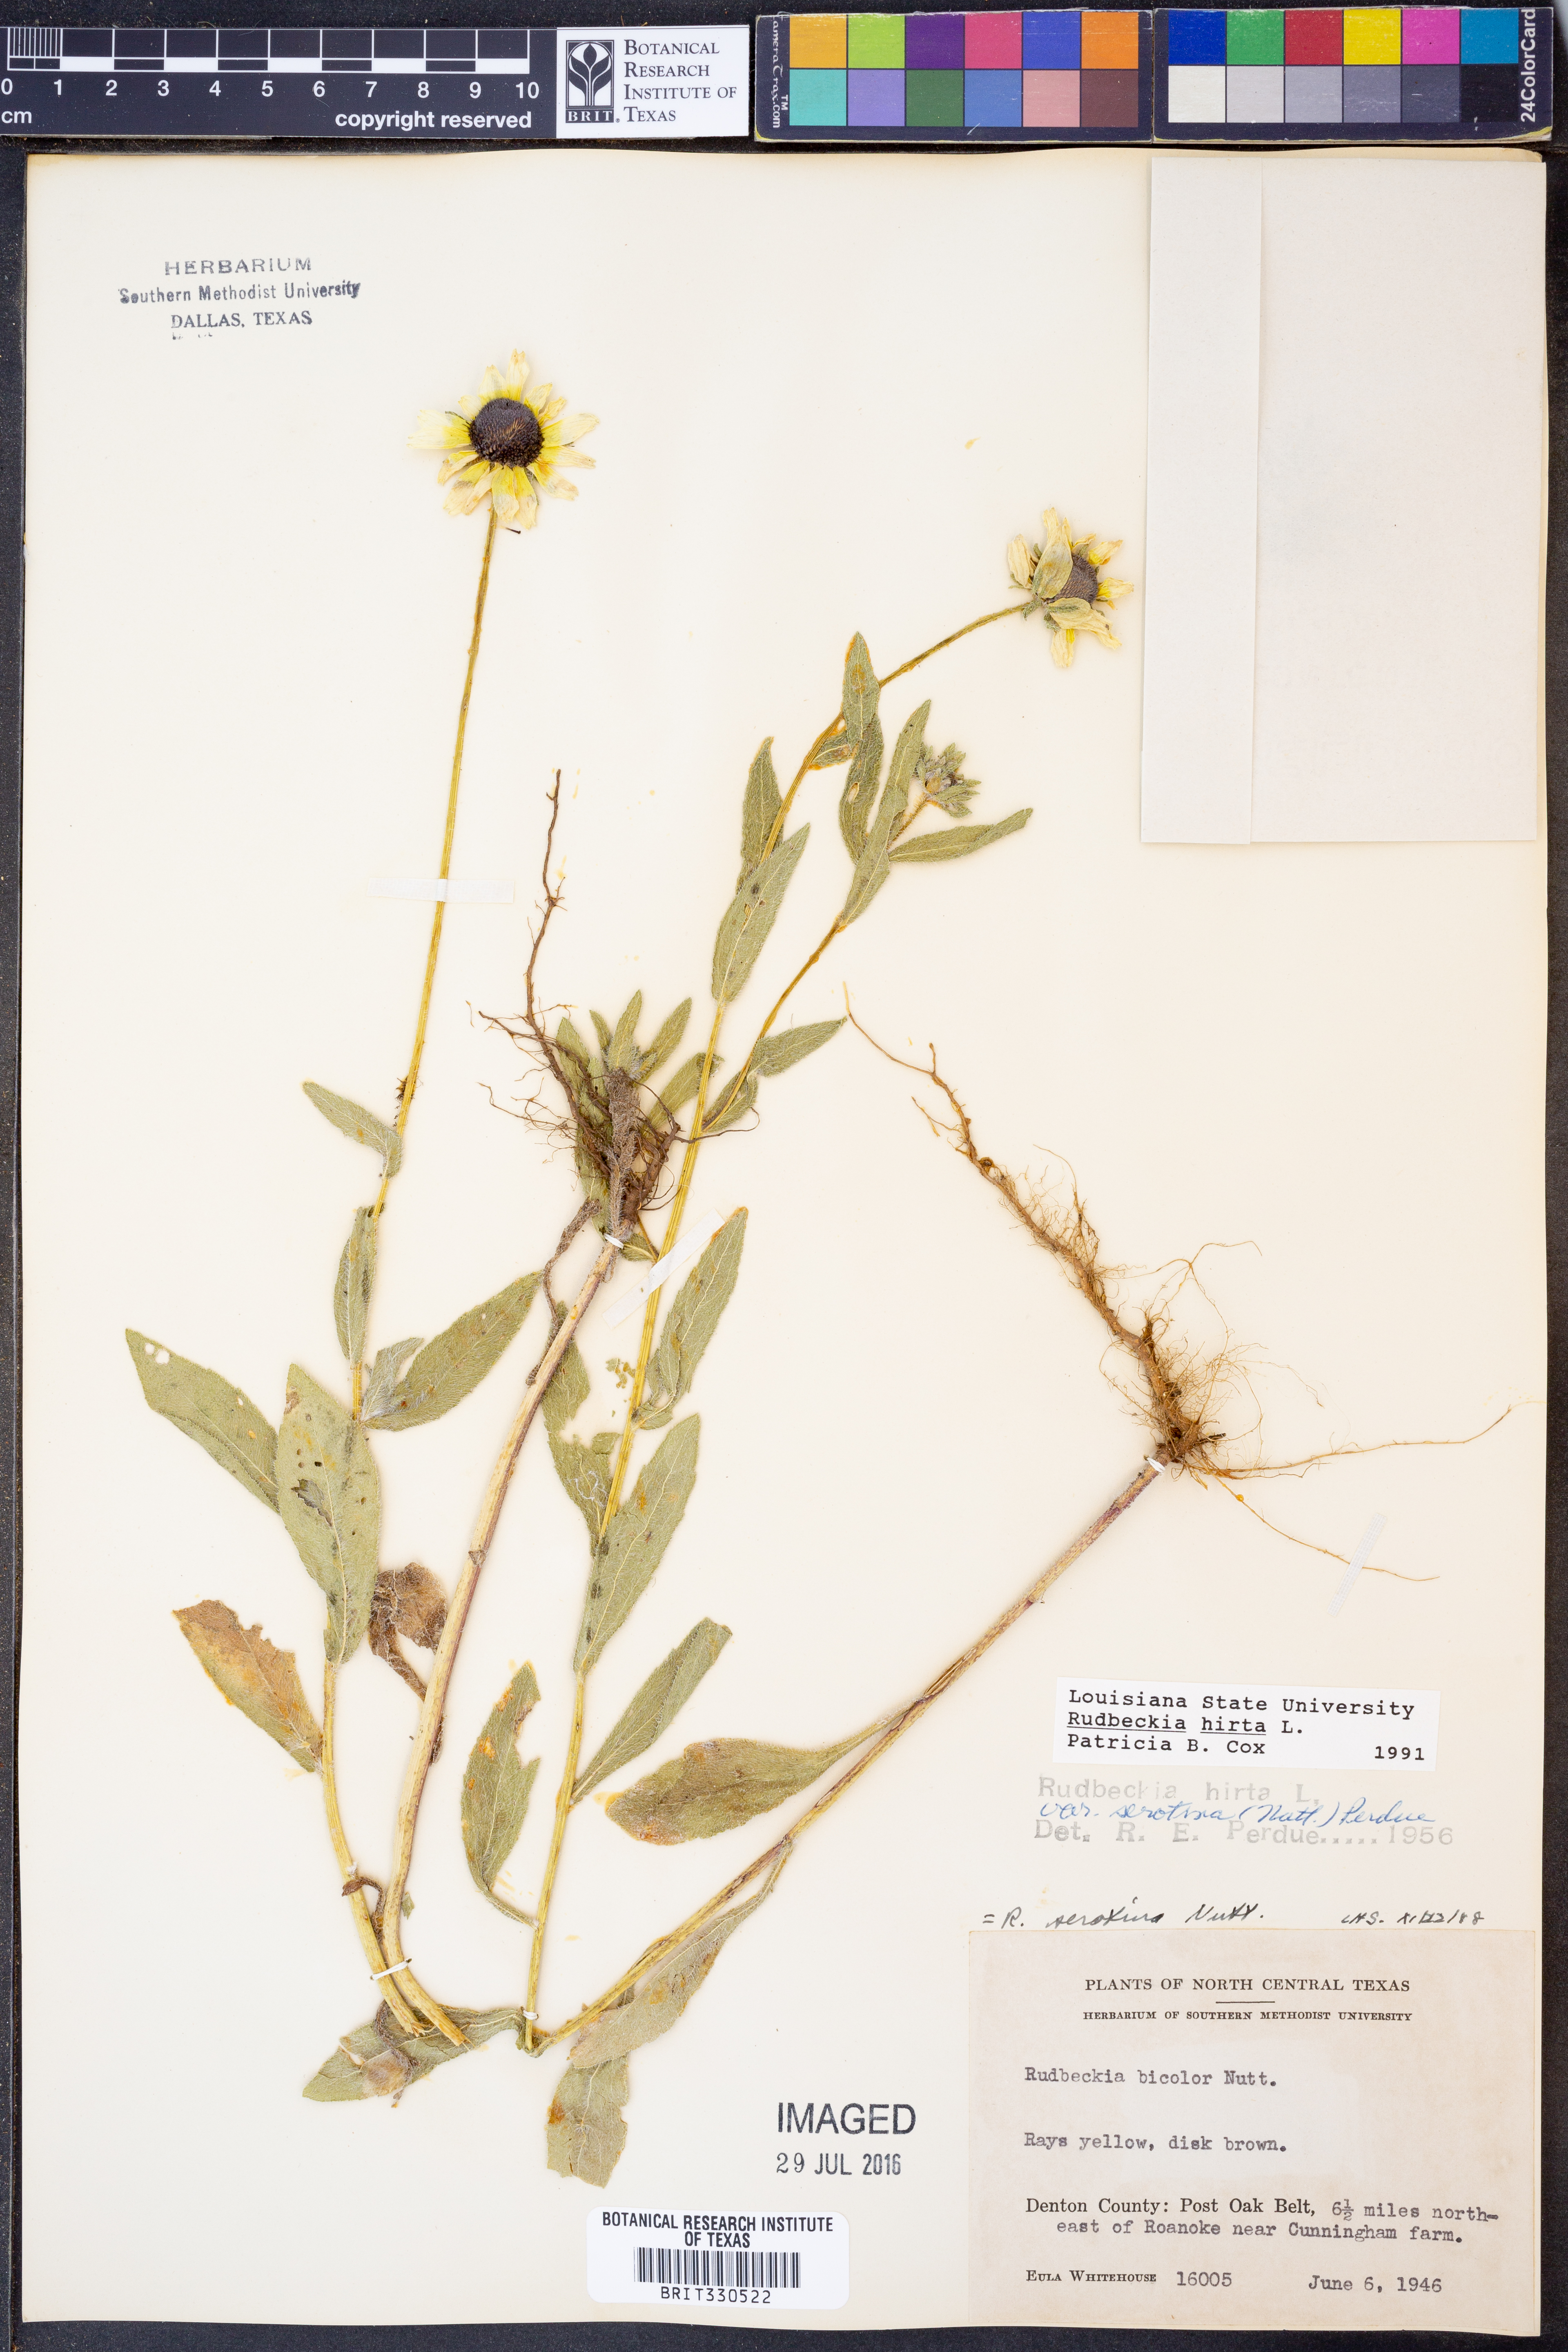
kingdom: Plantae
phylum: Tracheophyta
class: Magnoliopsida
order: Asterales
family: Asteraceae
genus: Rudbeckia
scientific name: Rudbeckia hirta
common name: Black-eyed-susan
